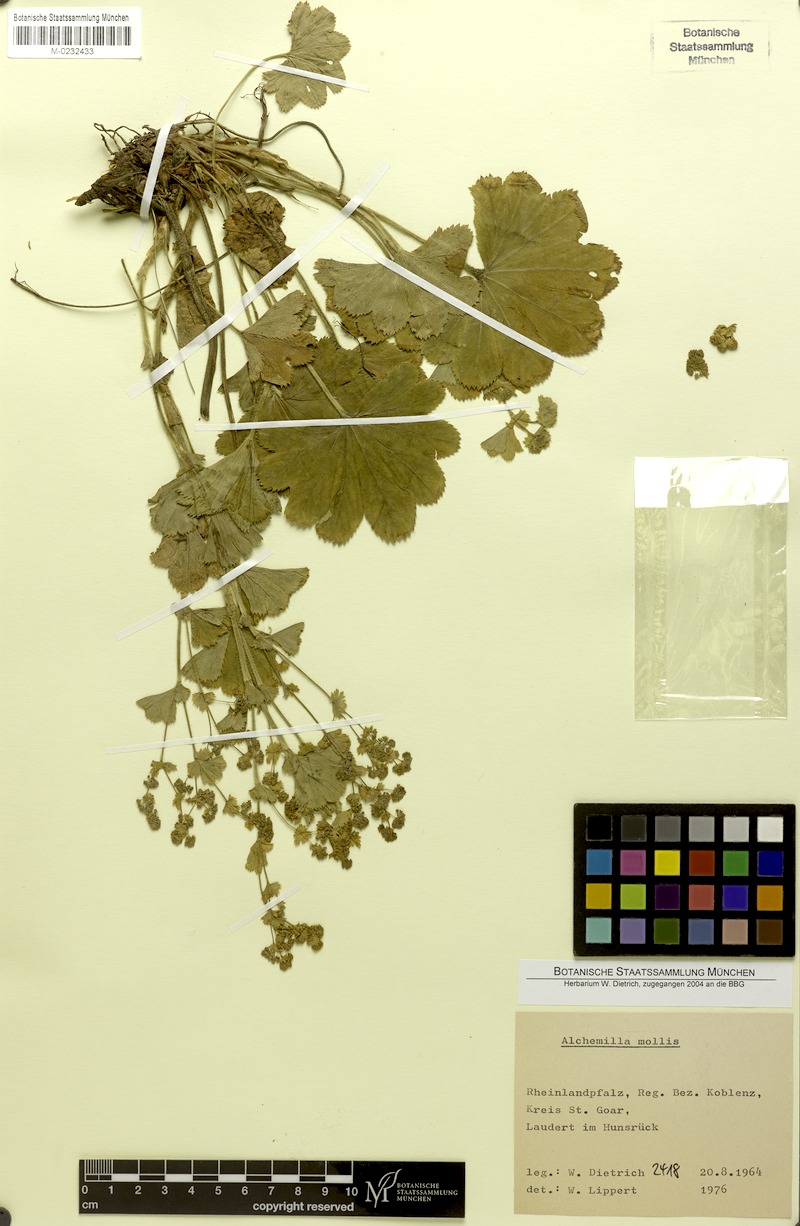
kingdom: Plantae
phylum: Tracheophyta
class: Magnoliopsida
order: Rosales
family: Rosaceae
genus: Alchemilla
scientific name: Alchemilla mollis
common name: Lady's-mantle
